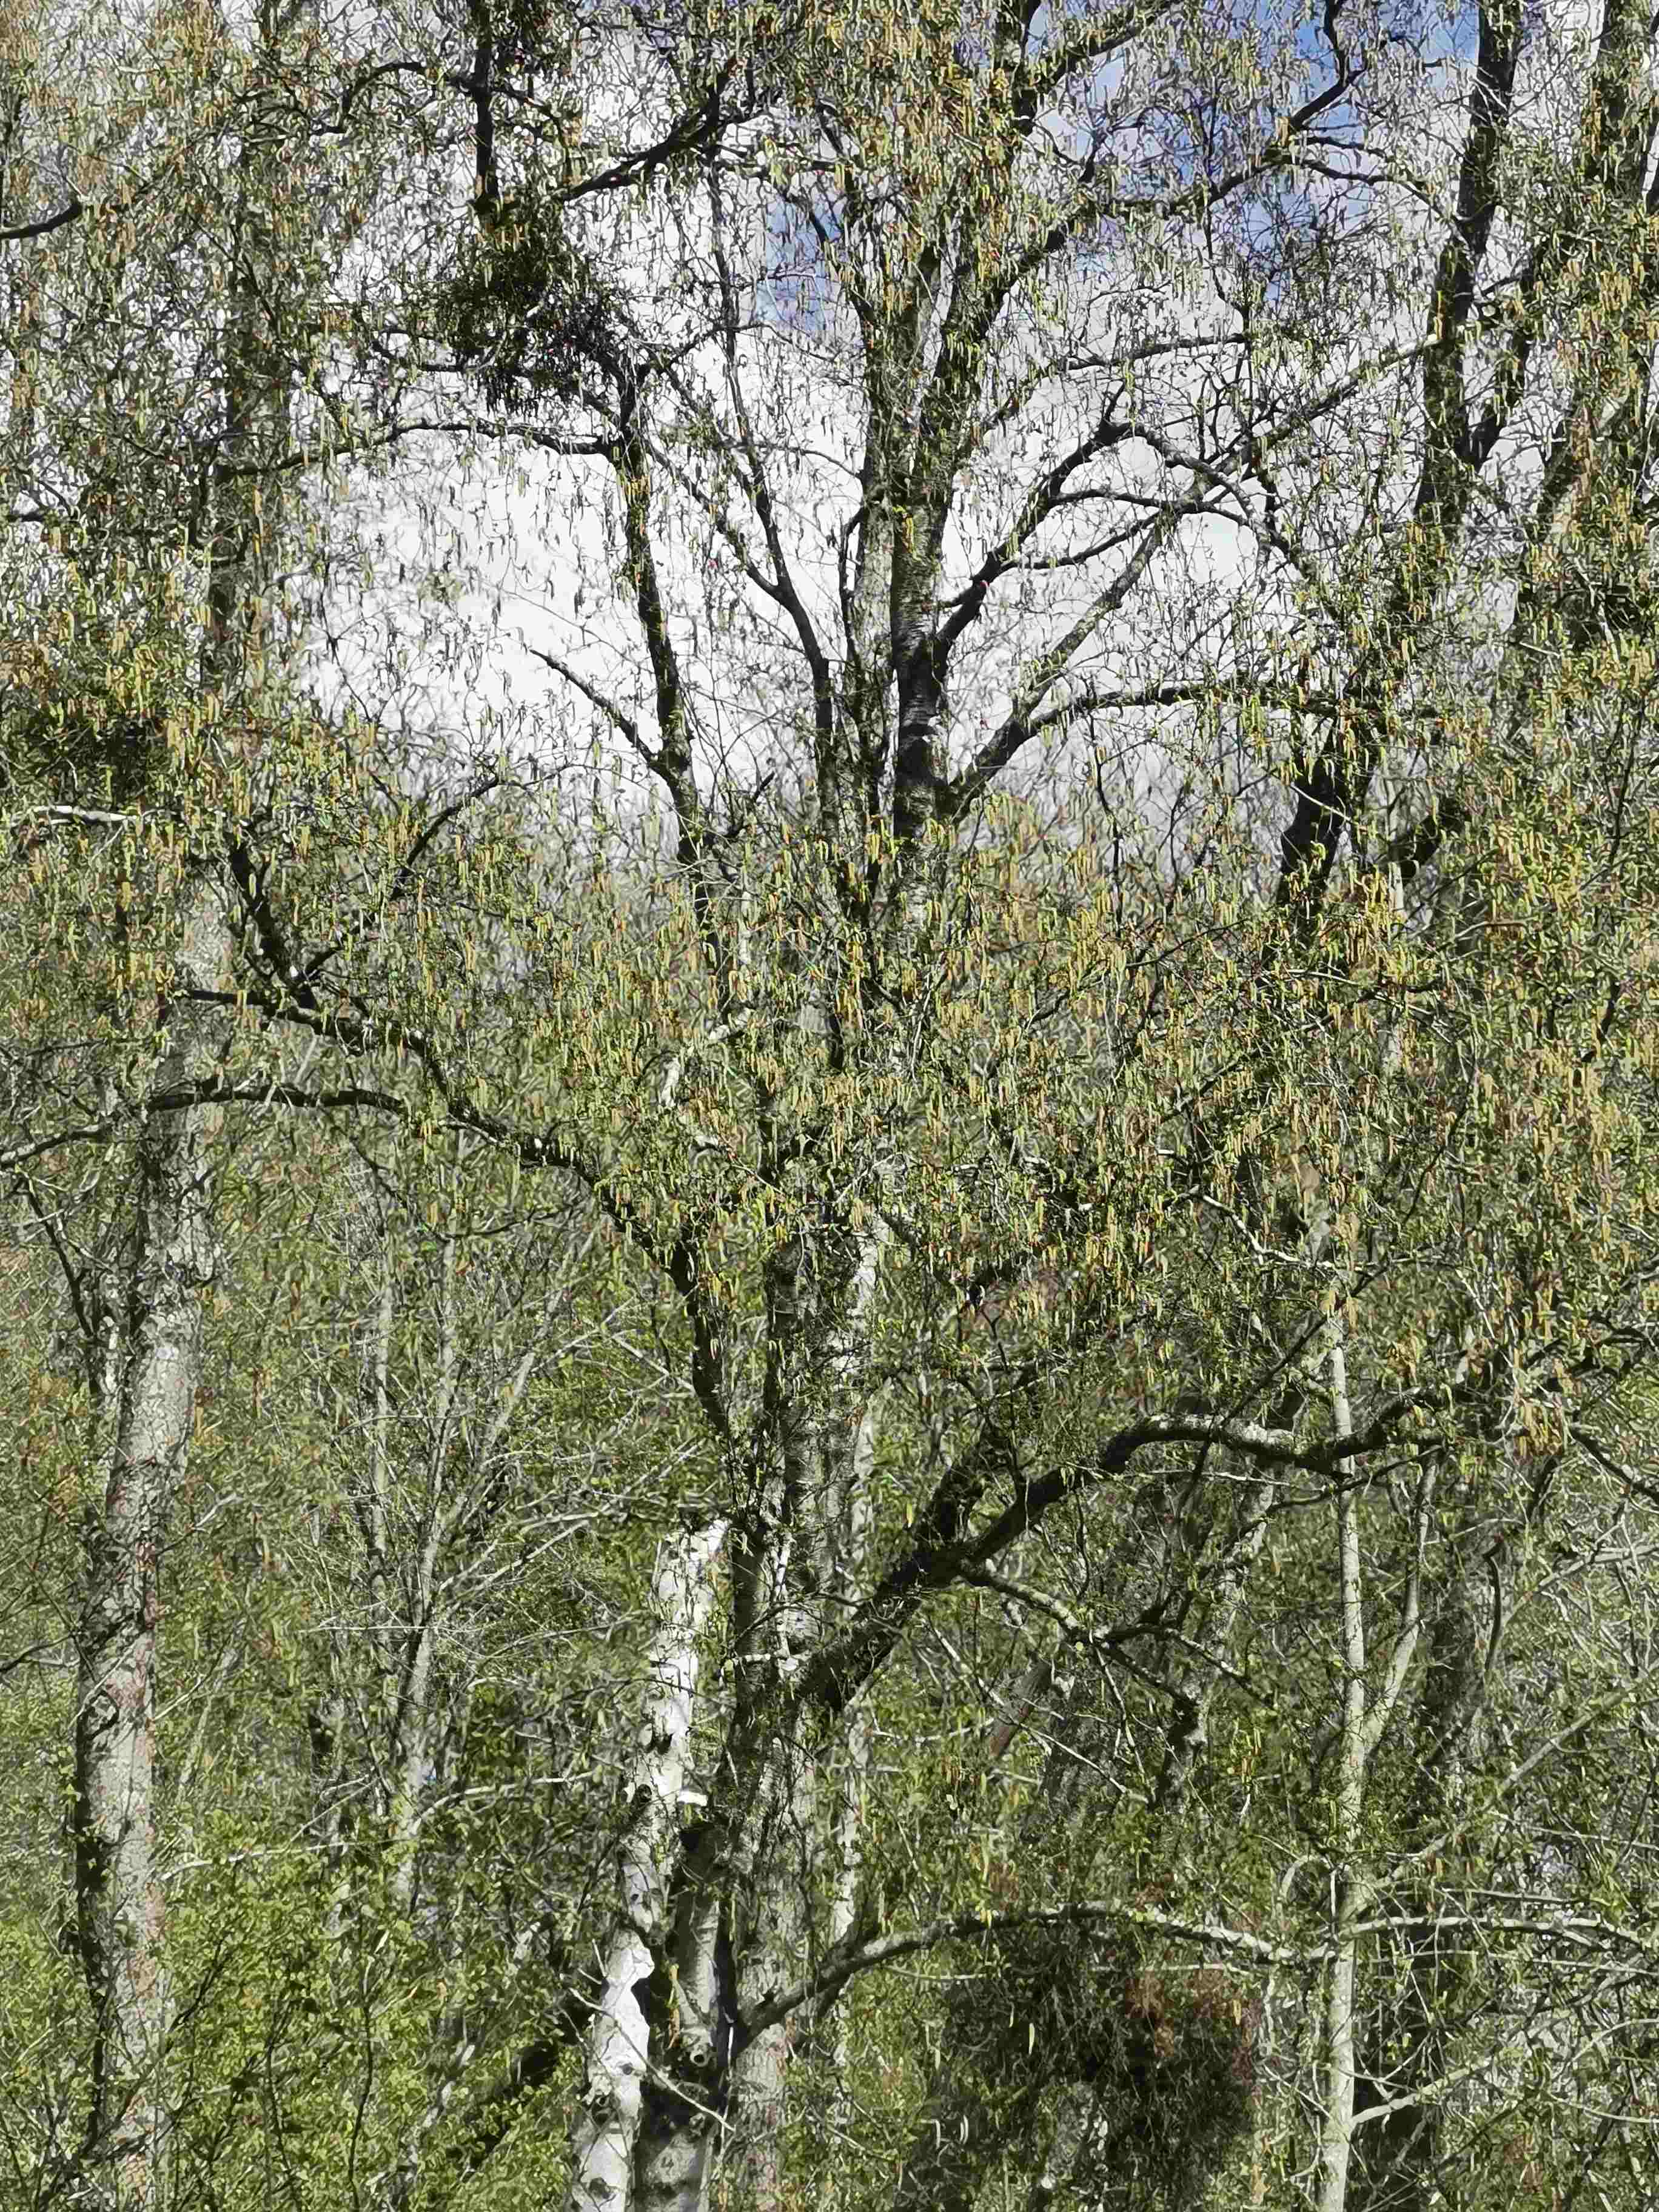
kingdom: Fungi
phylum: Ascomycota
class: Taphrinomycetes
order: Taphrinales
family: Taphrinaceae
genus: Taphrina
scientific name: Taphrina betulina
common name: hekse-sækdug
